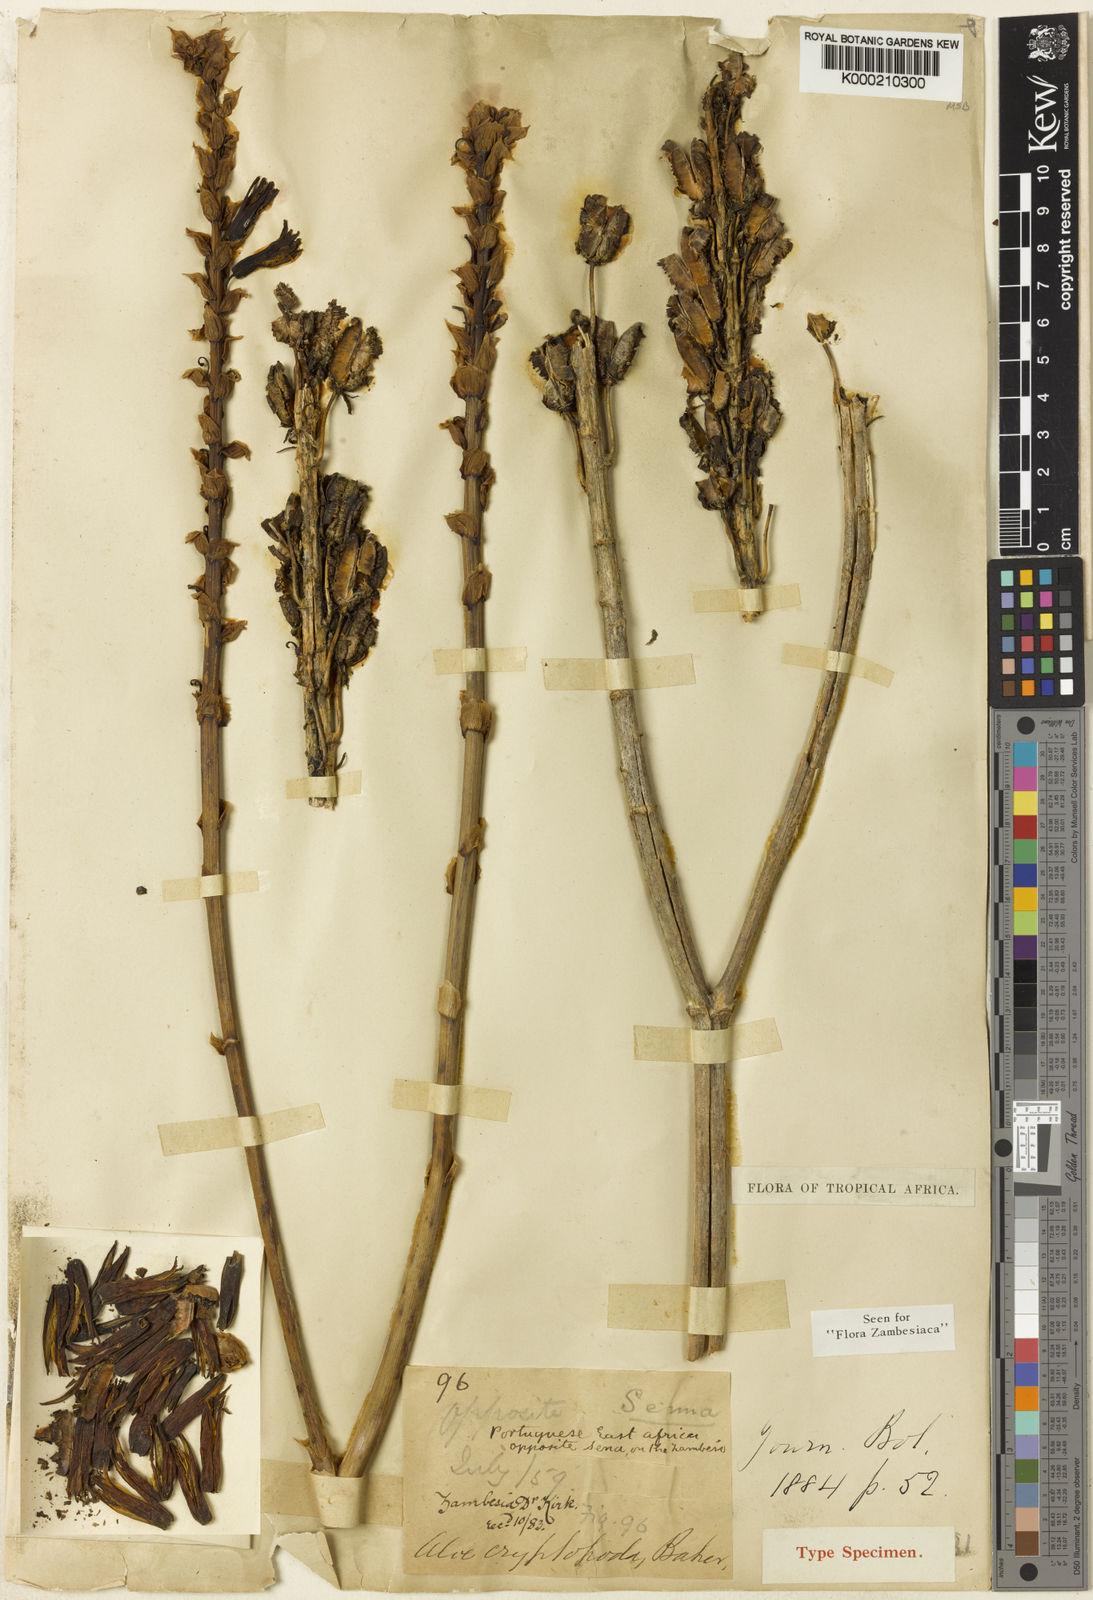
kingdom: Plantae
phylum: Tracheophyta
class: Liliopsida
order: Asparagales
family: Asphodelaceae
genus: Aloe
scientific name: Aloe cryptopoda
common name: Dr. kirk's aloe
